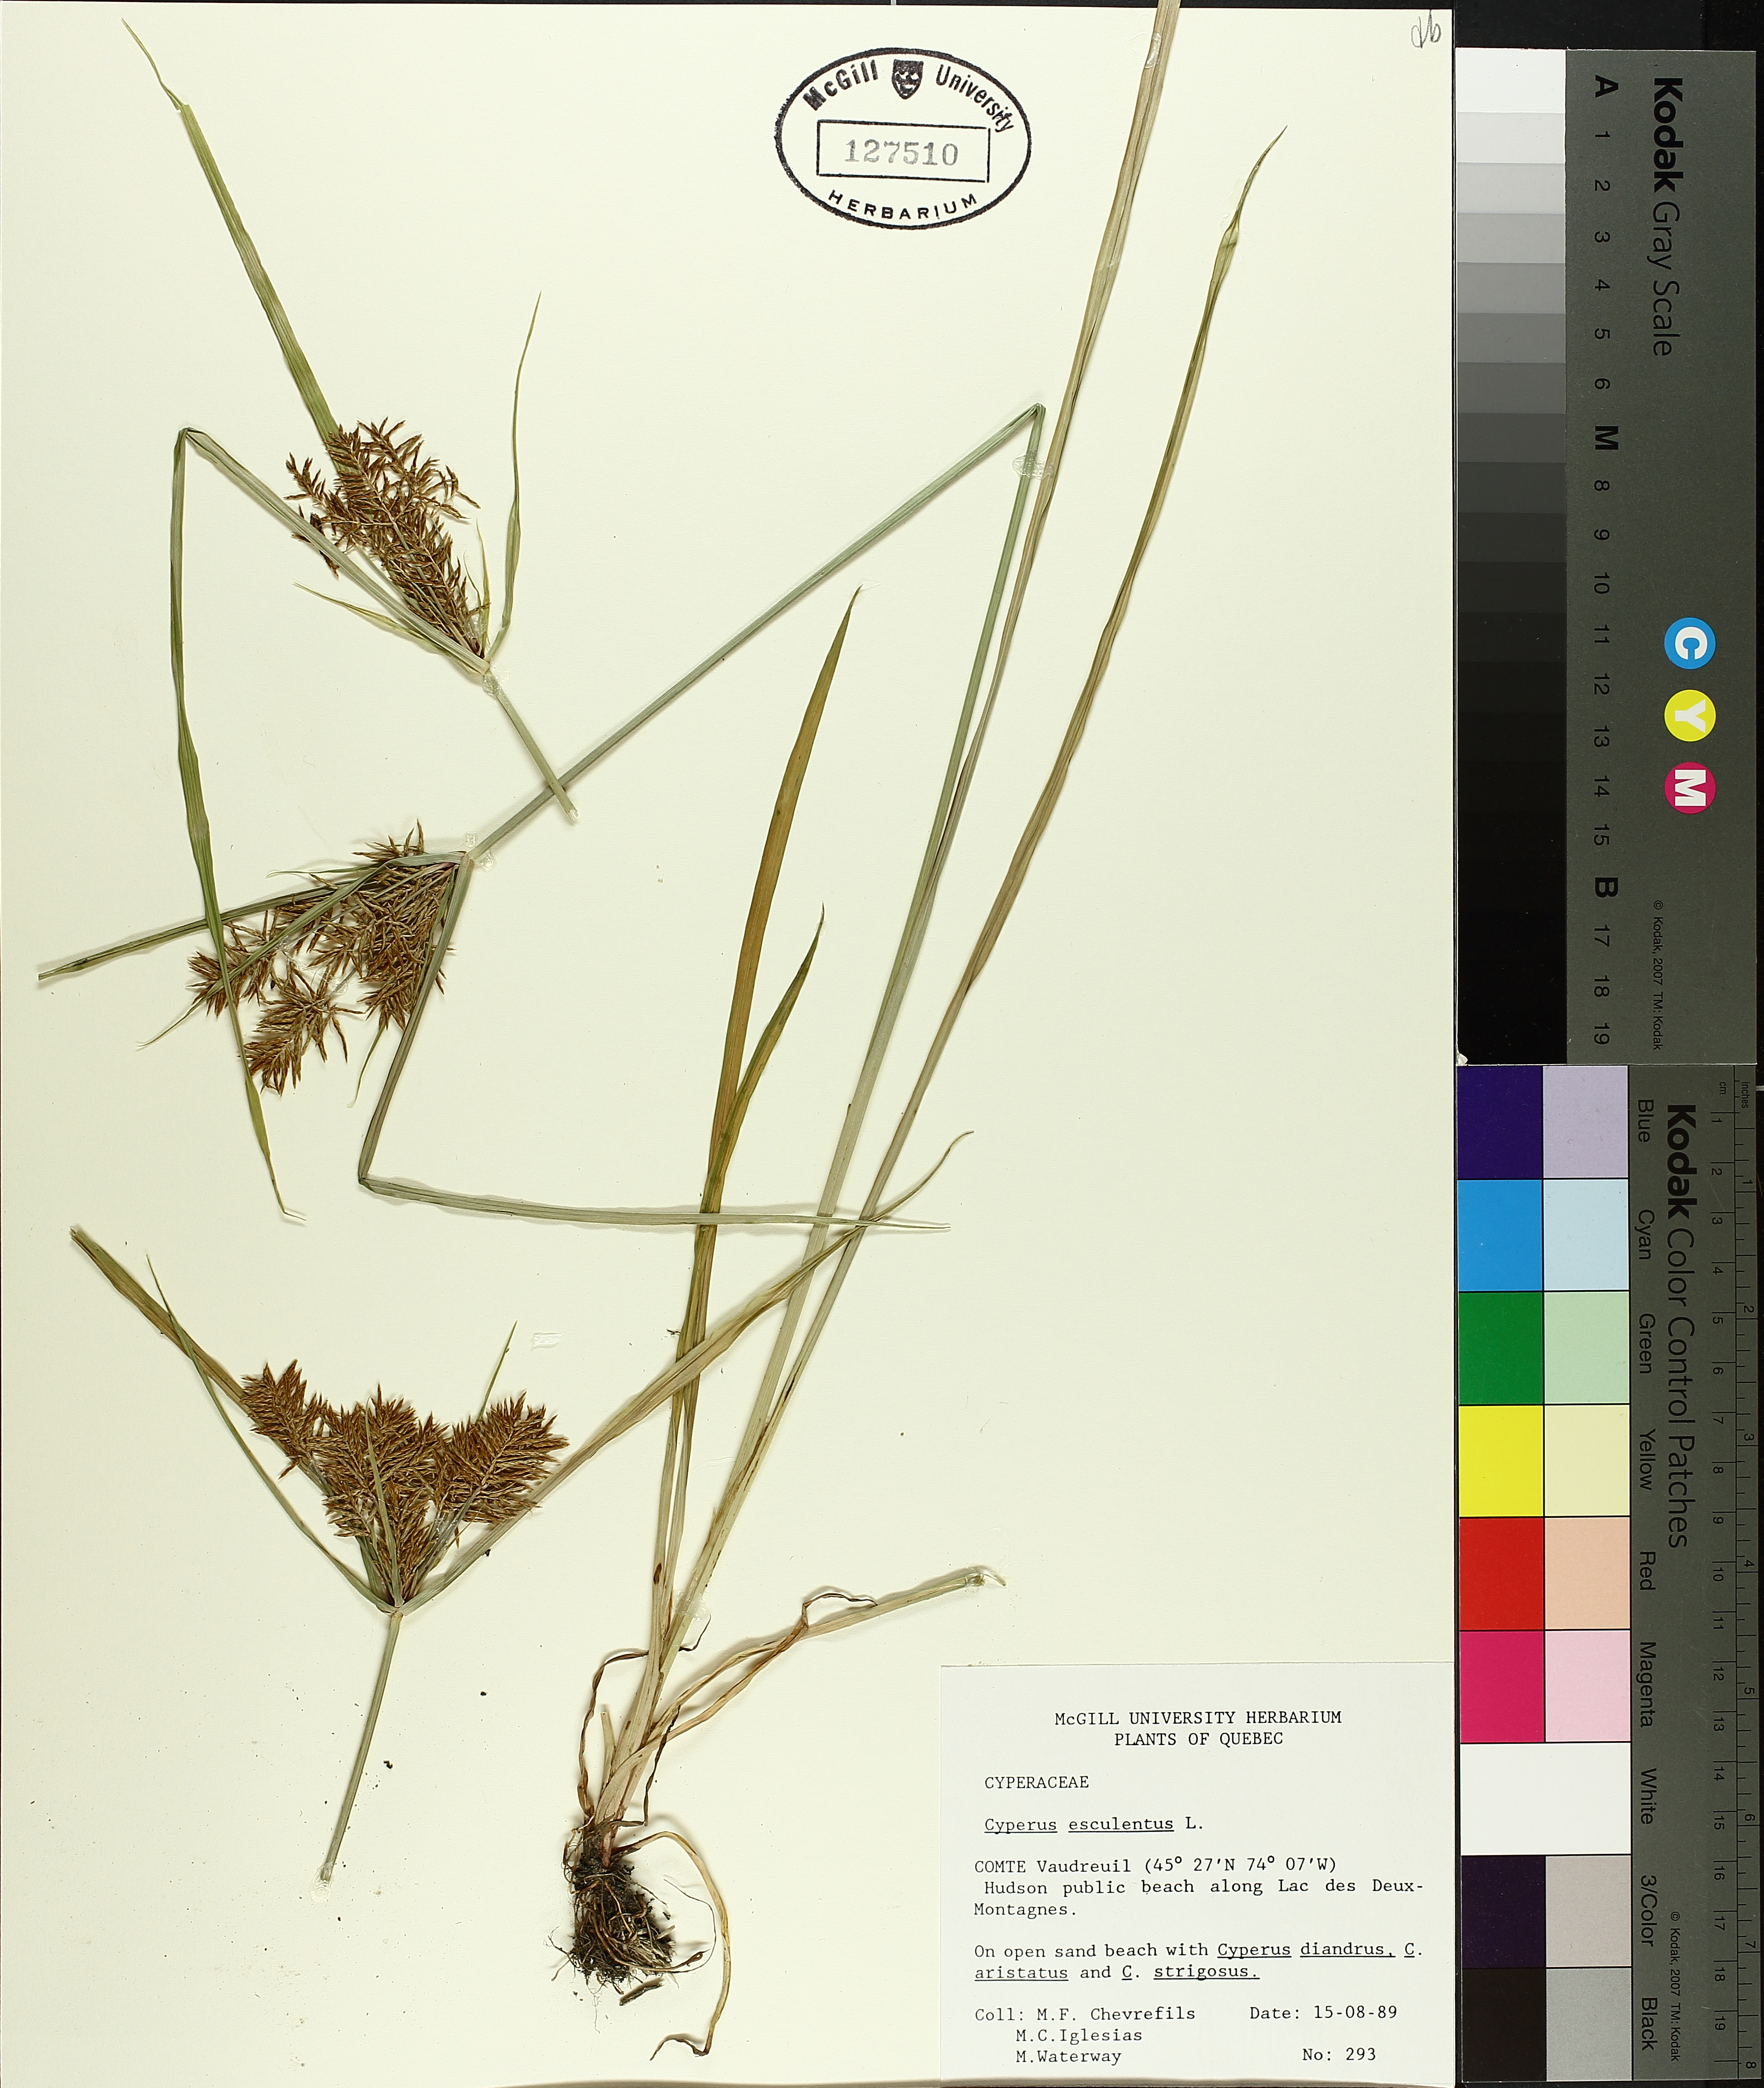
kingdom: Plantae
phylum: Tracheophyta
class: Liliopsida
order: Poales
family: Cyperaceae
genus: Cyperus
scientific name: Cyperus esculentus
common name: Yellow nutsedge
